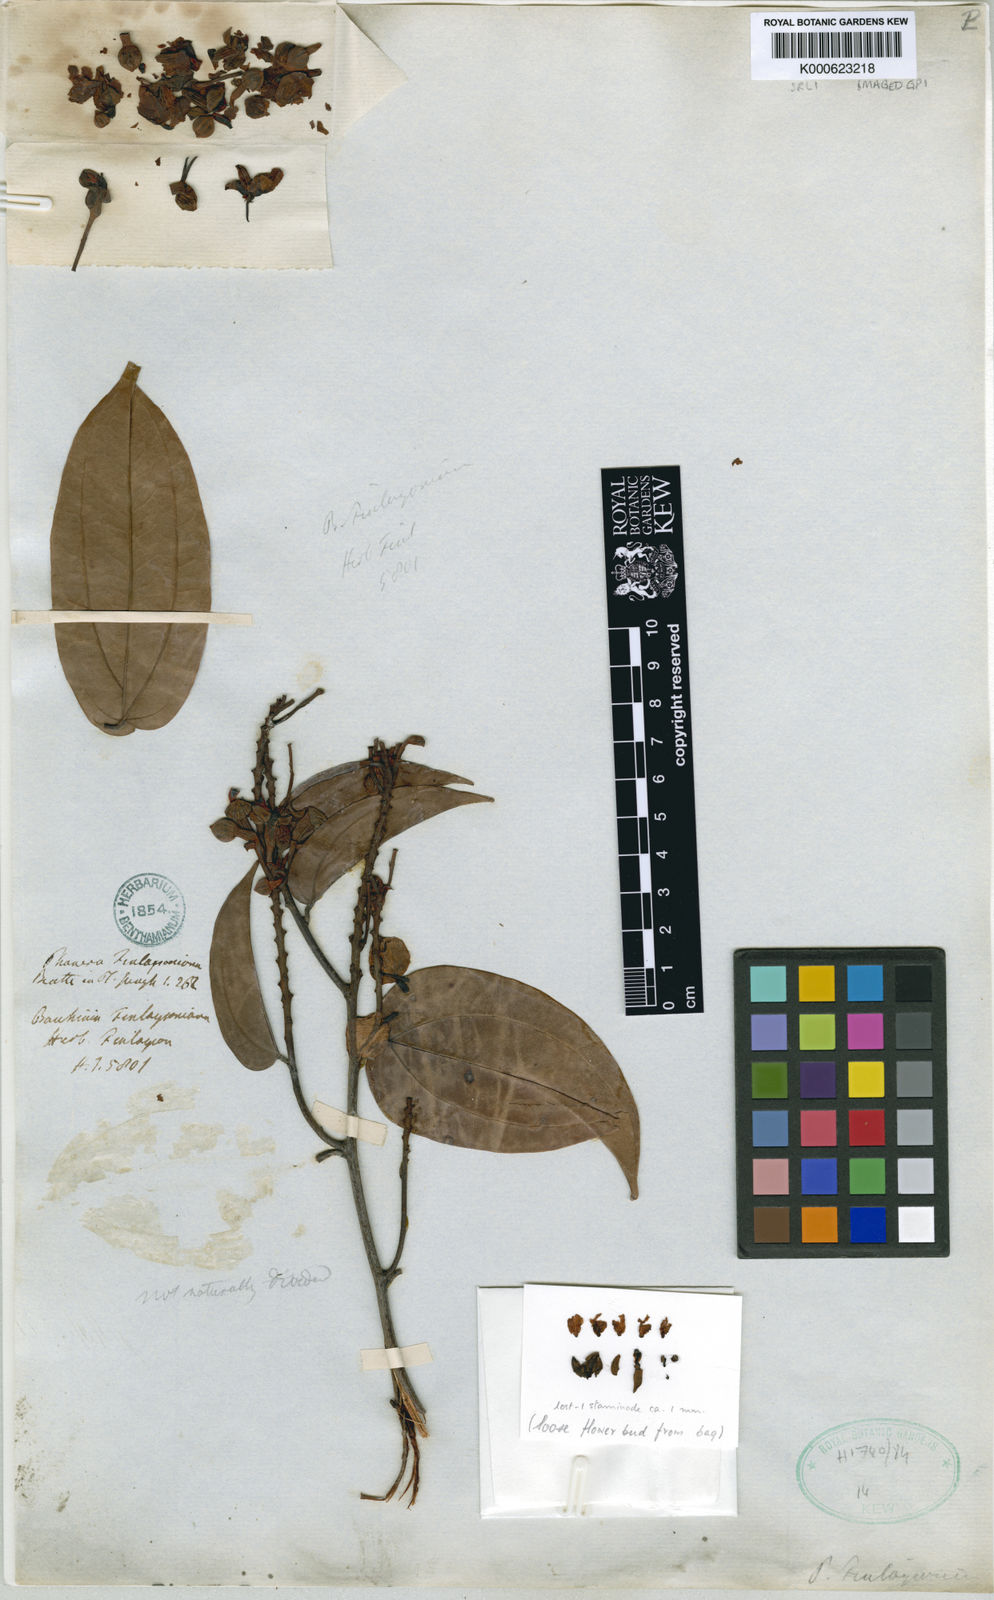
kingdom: Plantae
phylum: Tracheophyta
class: Magnoliopsida
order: Fabales
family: Fabaceae
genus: Phanera
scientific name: Phanera finlaysoniana
